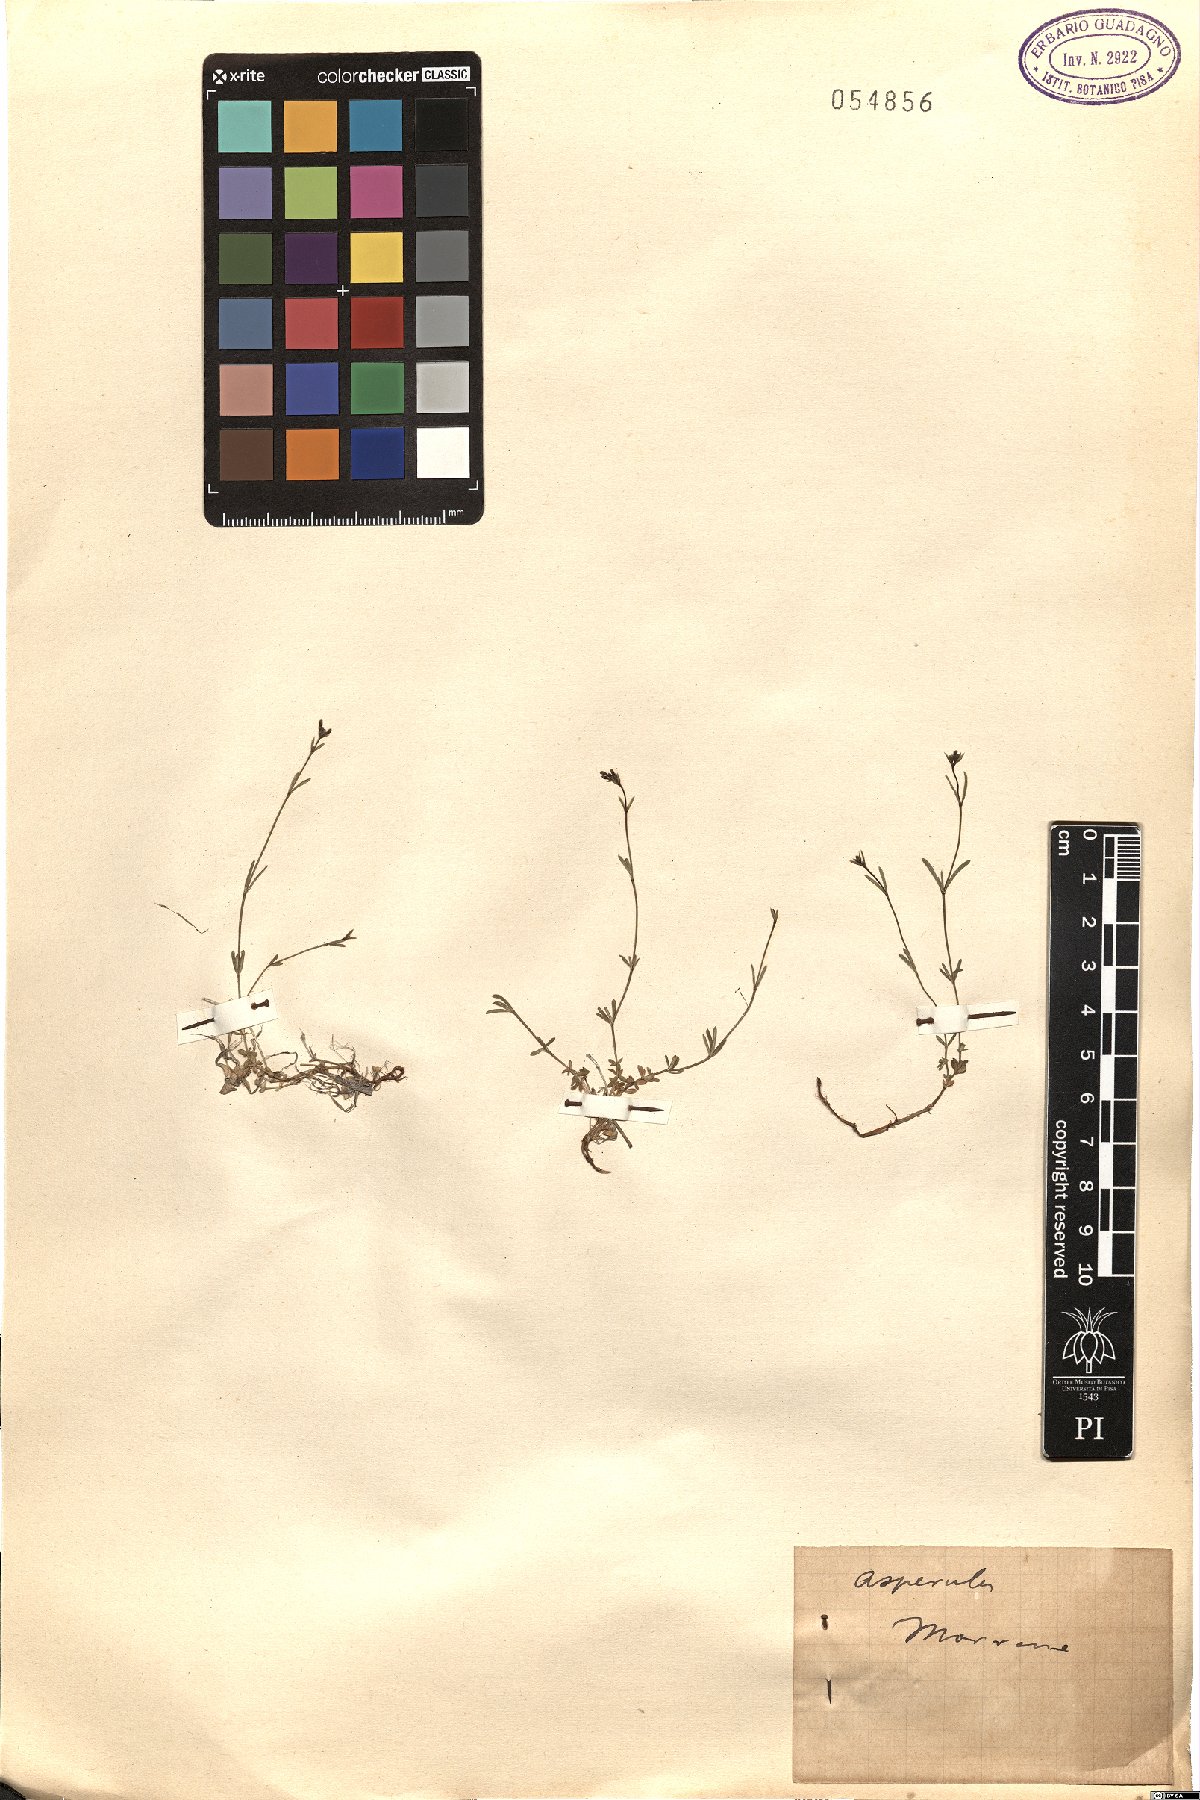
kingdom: Plantae
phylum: Tracheophyta
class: Magnoliopsida
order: Gentianales
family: Rubiaceae
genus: Asperula
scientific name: Asperula
